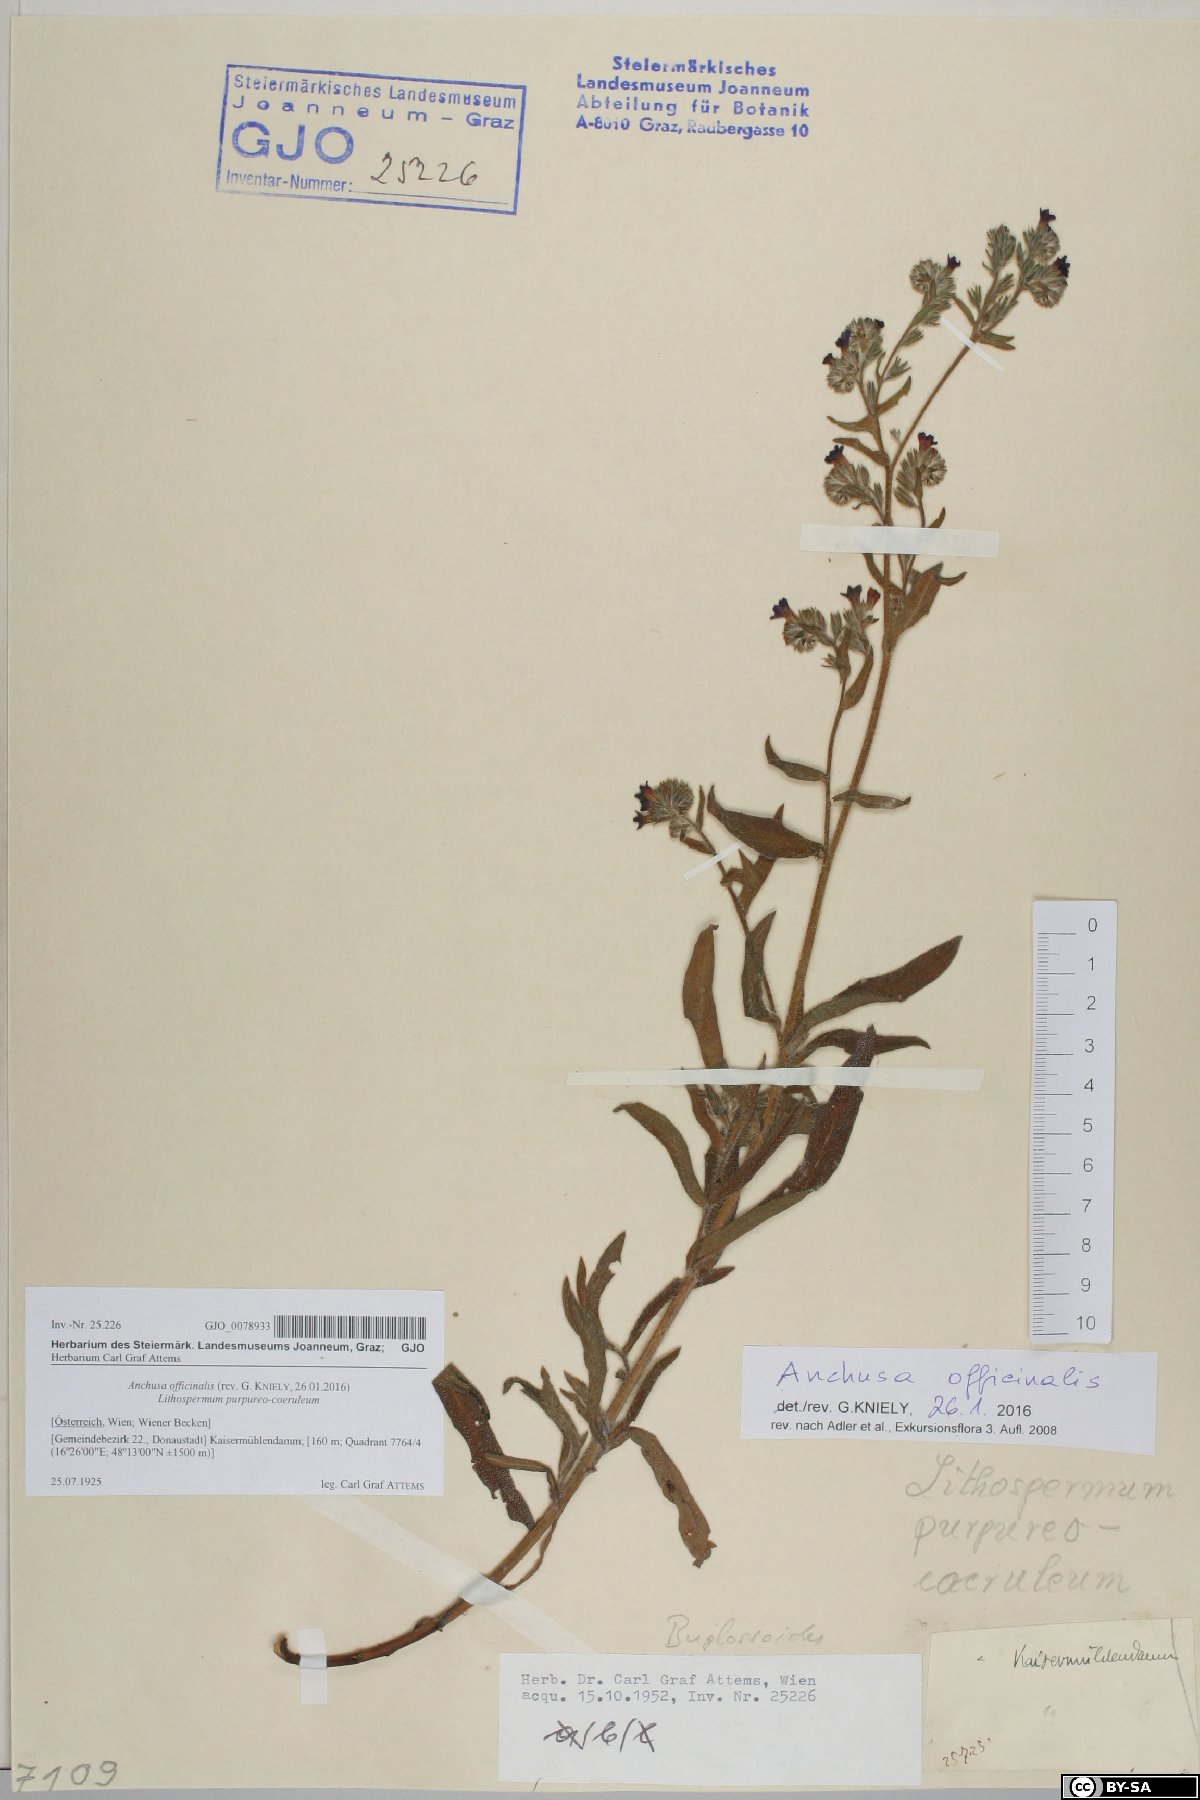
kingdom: Plantae
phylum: Tracheophyta
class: Magnoliopsida
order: Boraginales
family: Boraginaceae
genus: Anchusa
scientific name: Anchusa officinalis
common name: Alkanet
